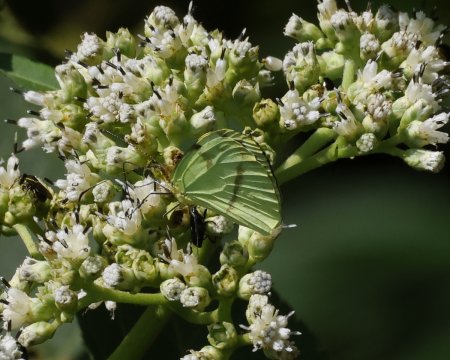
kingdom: Animalia
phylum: Arthropoda
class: Insecta
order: Lepidoptera
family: Pieridae
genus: Enantia
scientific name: Enantia albania
